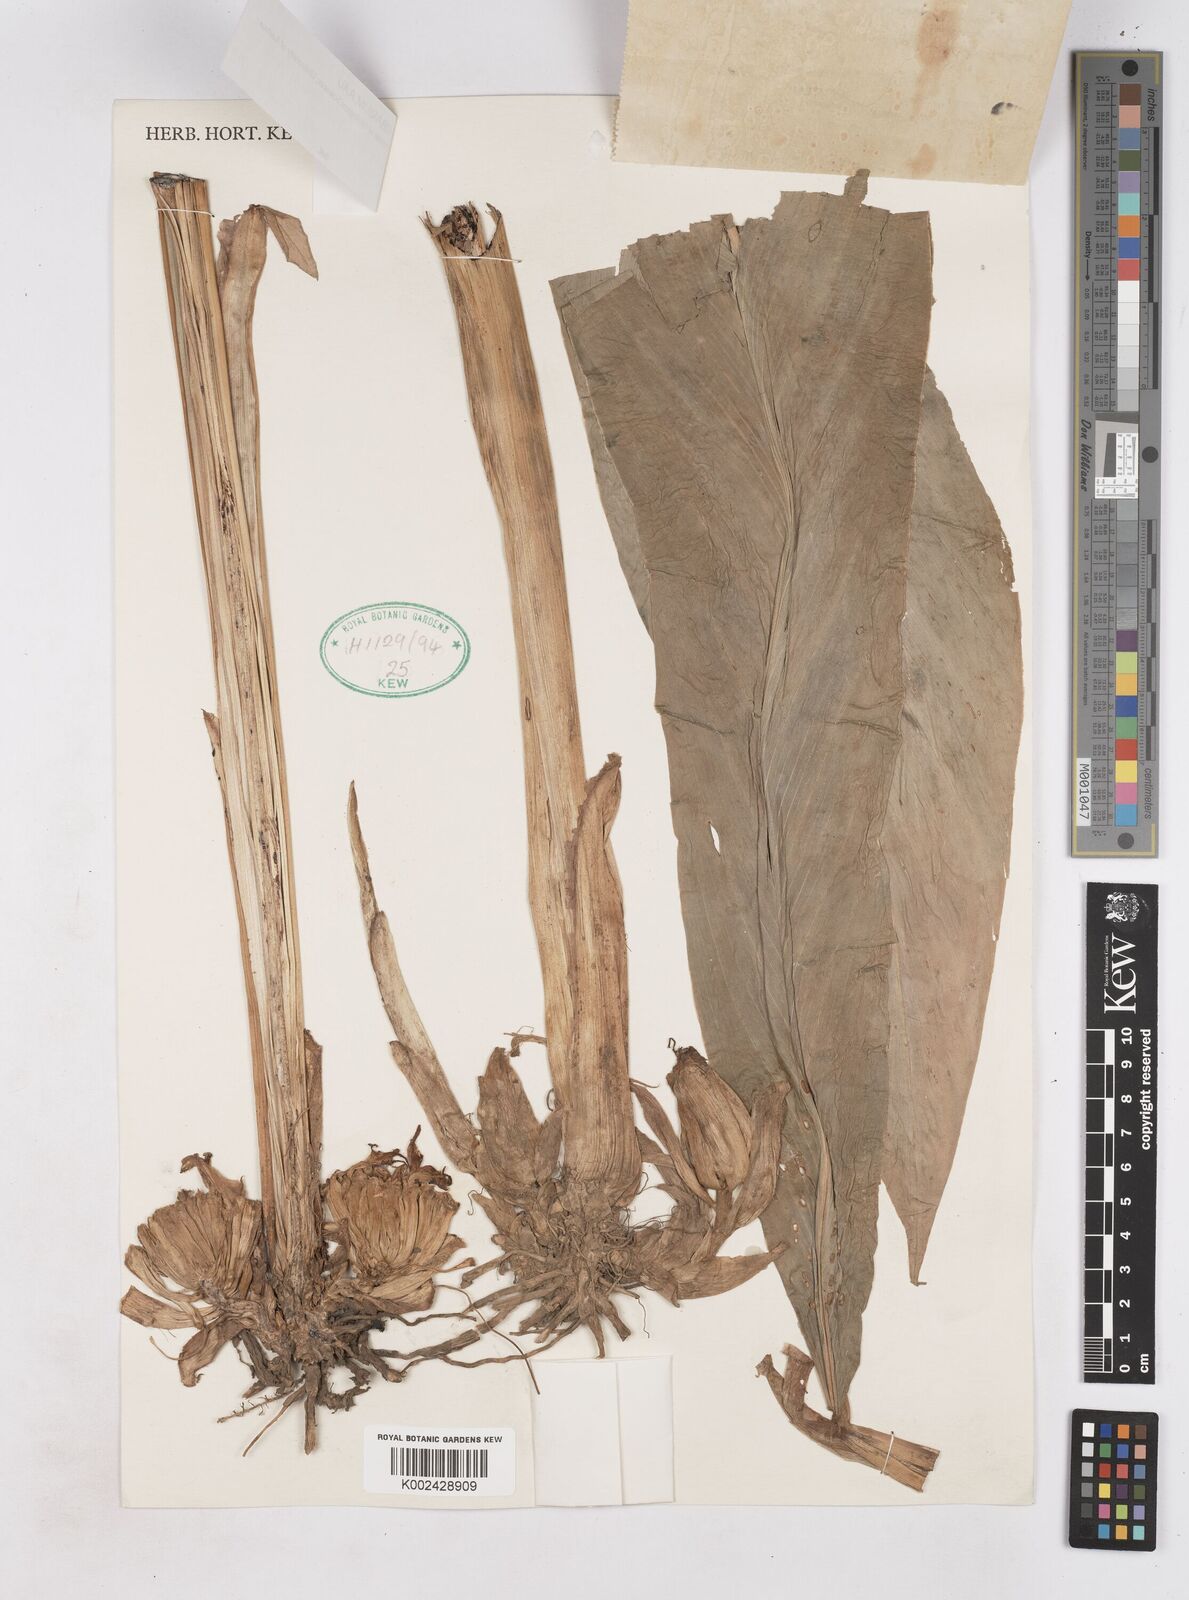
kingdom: Plantae
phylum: Tracheophyta
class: Liliopsida
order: Zingiberales
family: Zingiberaceae
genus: Zingiber
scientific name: Zingiber integrum
